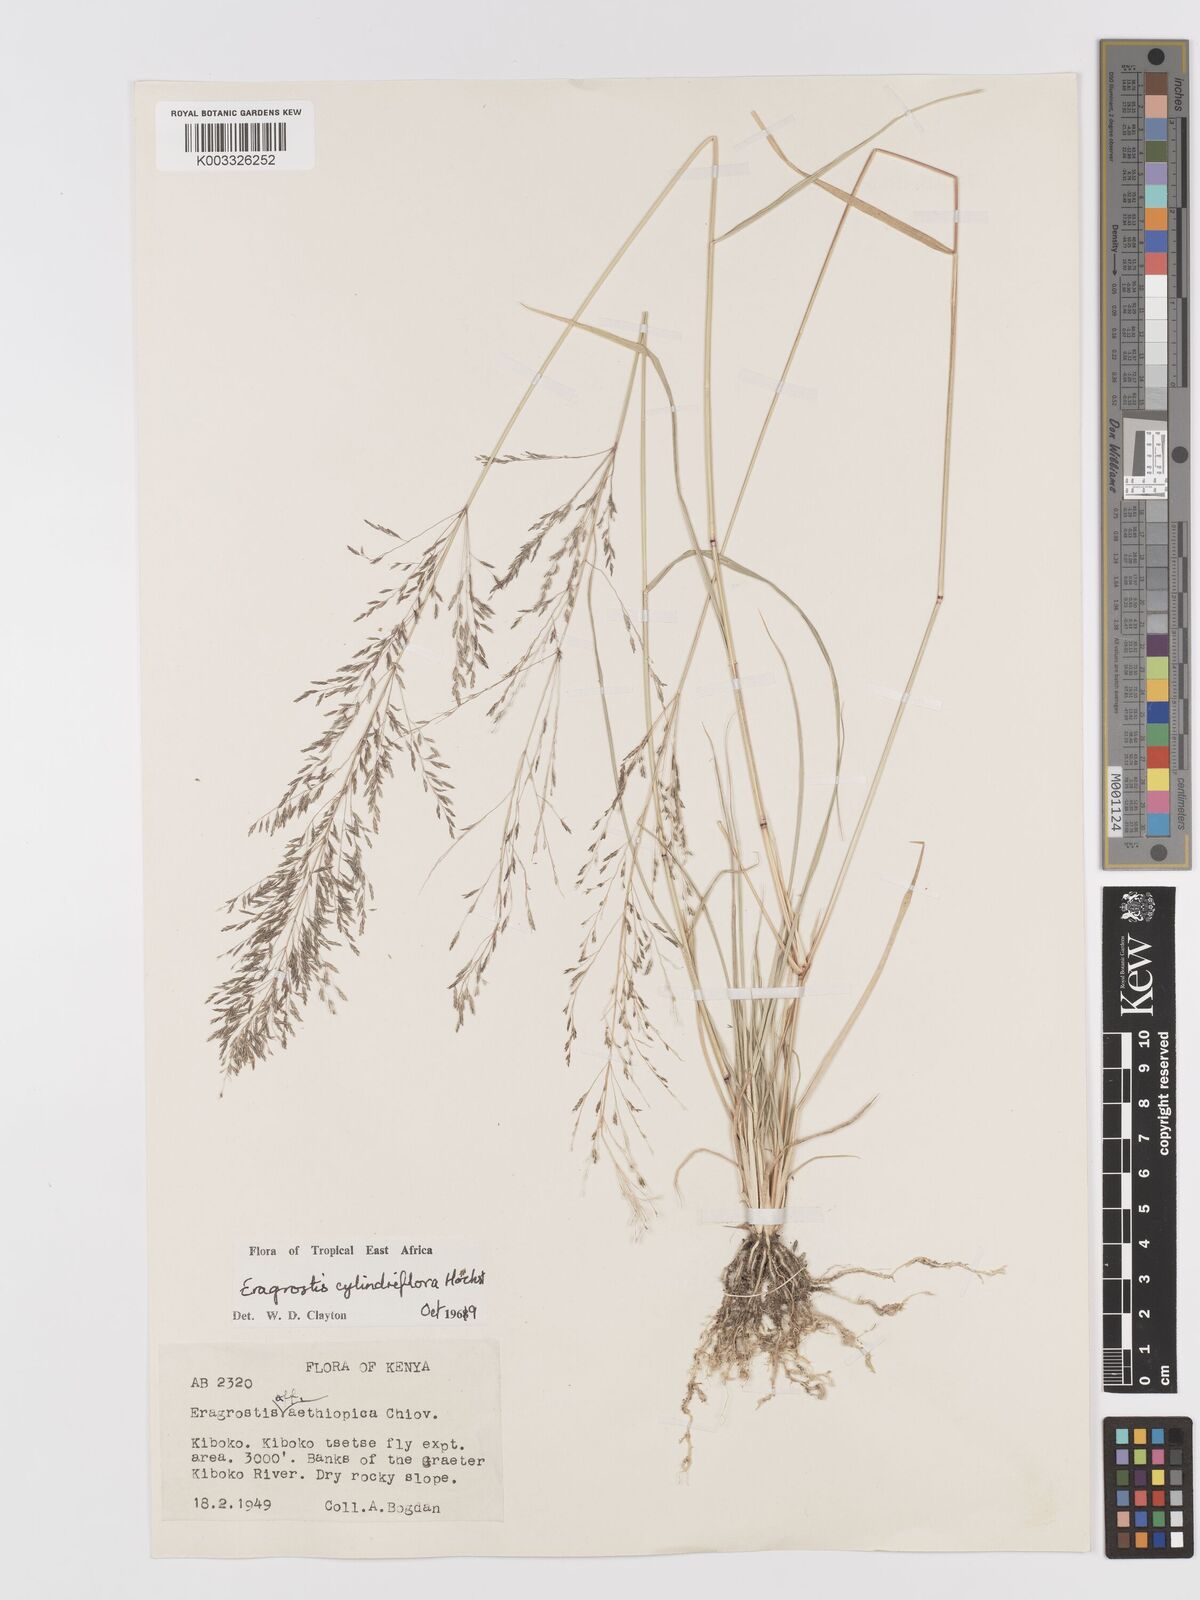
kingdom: Plantae
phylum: Tracheophyta
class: Liliopsida
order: Poales
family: Poaceae
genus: Eragrostis
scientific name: Eragrostis cylindriflora
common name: Cylinderflower lovegrass
